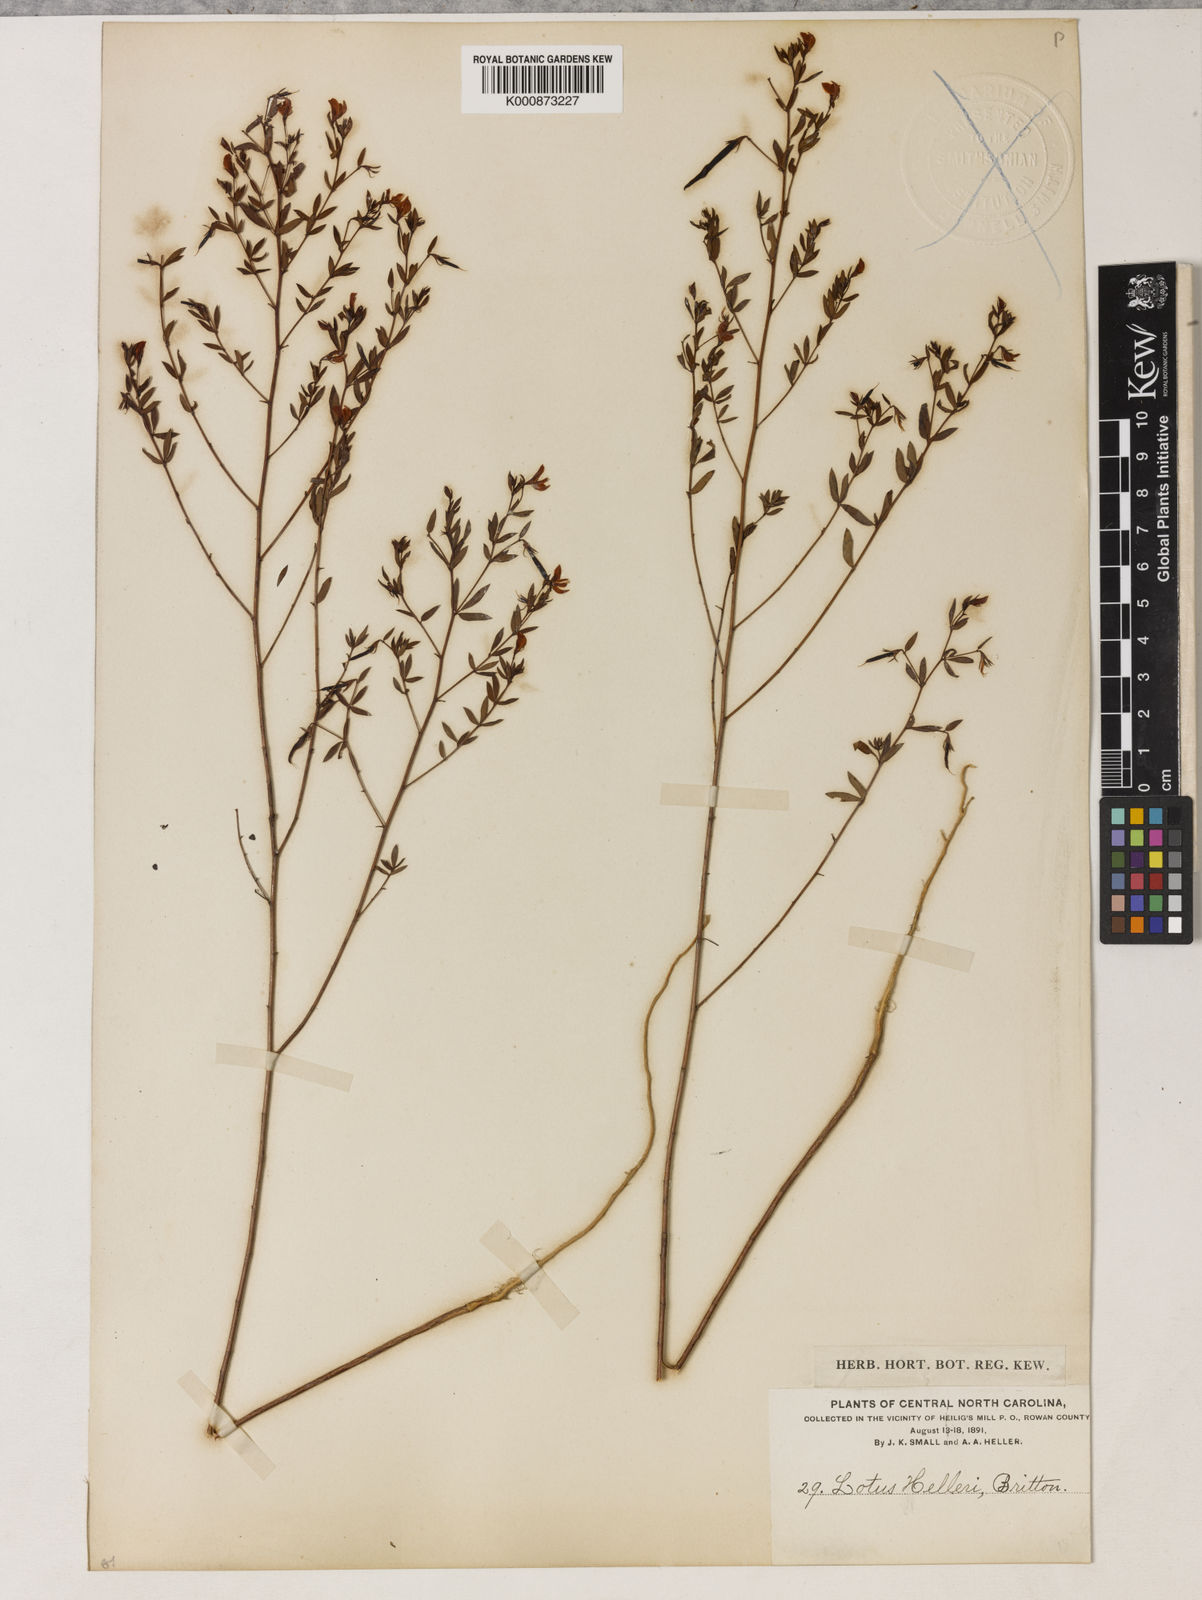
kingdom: Plantae
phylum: Tracheophyta
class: Magnoliopsida
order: Fabales
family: Fabaceae
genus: Acmispon
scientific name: Acmispon americanus
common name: American bird's-foot trefoil
